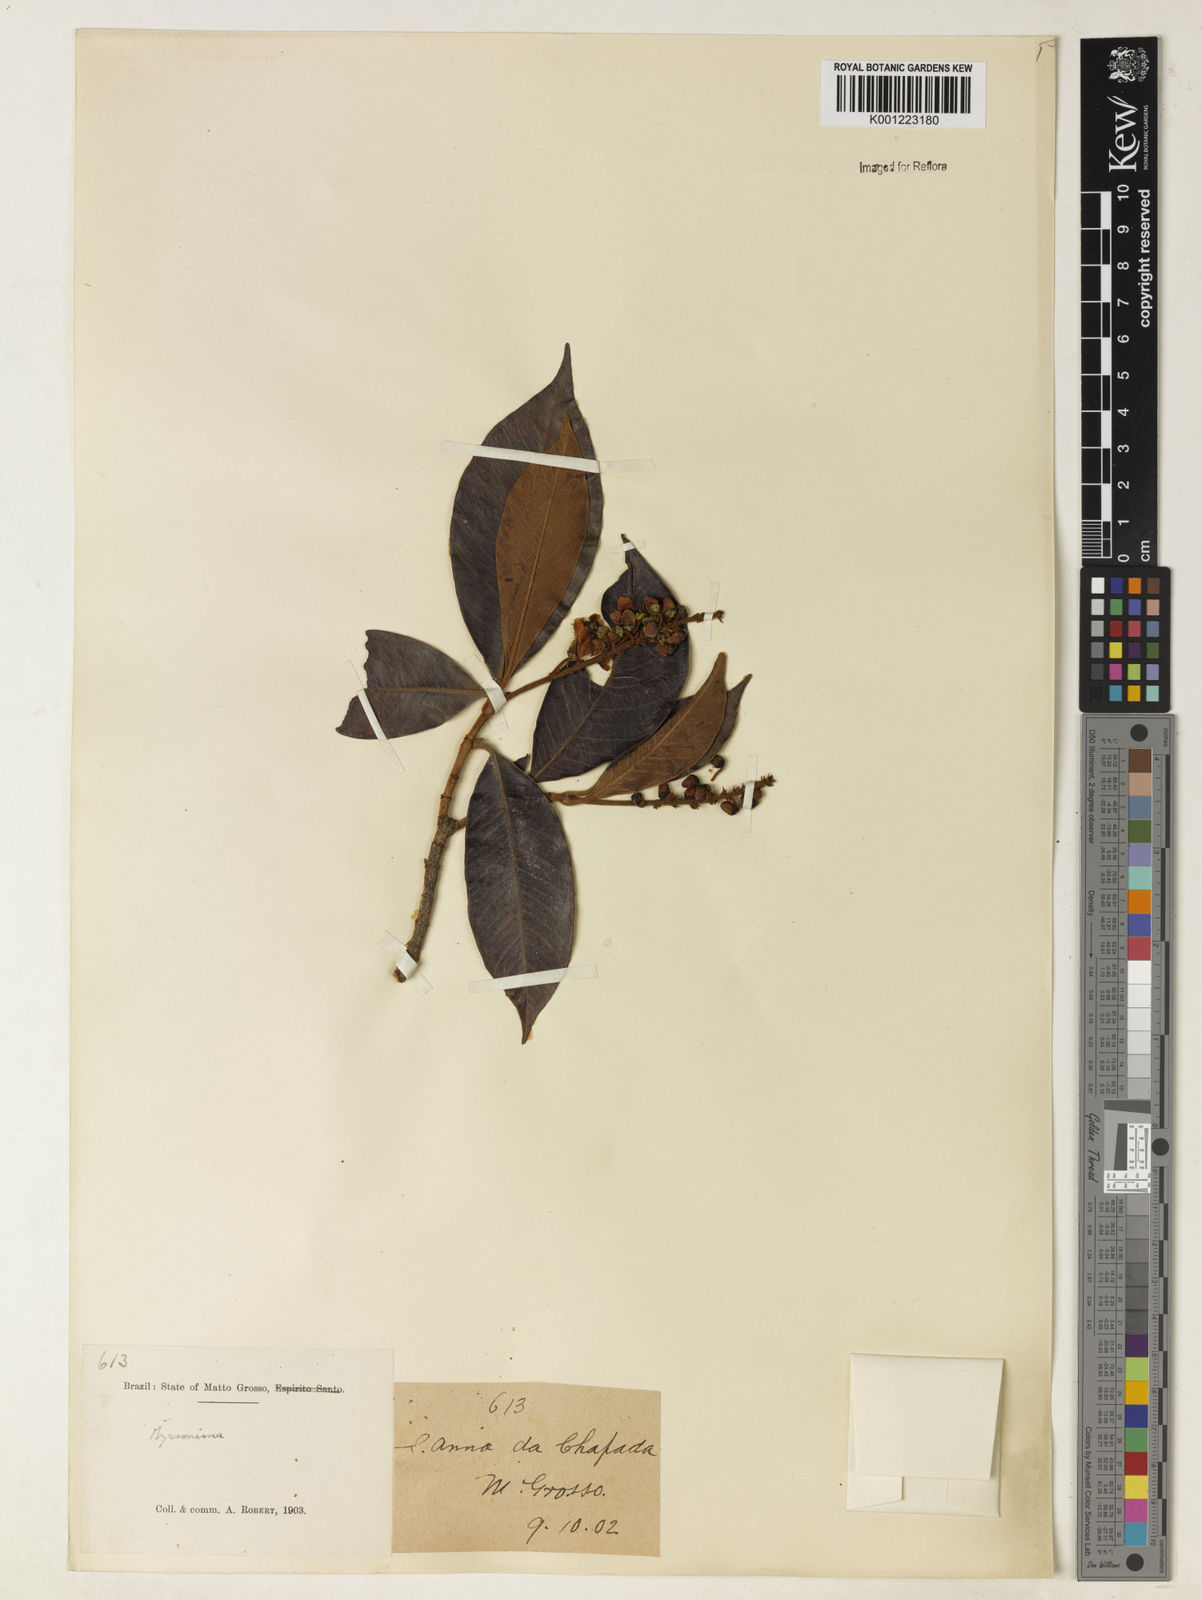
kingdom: Plantae
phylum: Tracheophyta
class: Magnoliopsida
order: Malpighiales
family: Malpighiaceae
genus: Byrsonima
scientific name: Byrsonima
